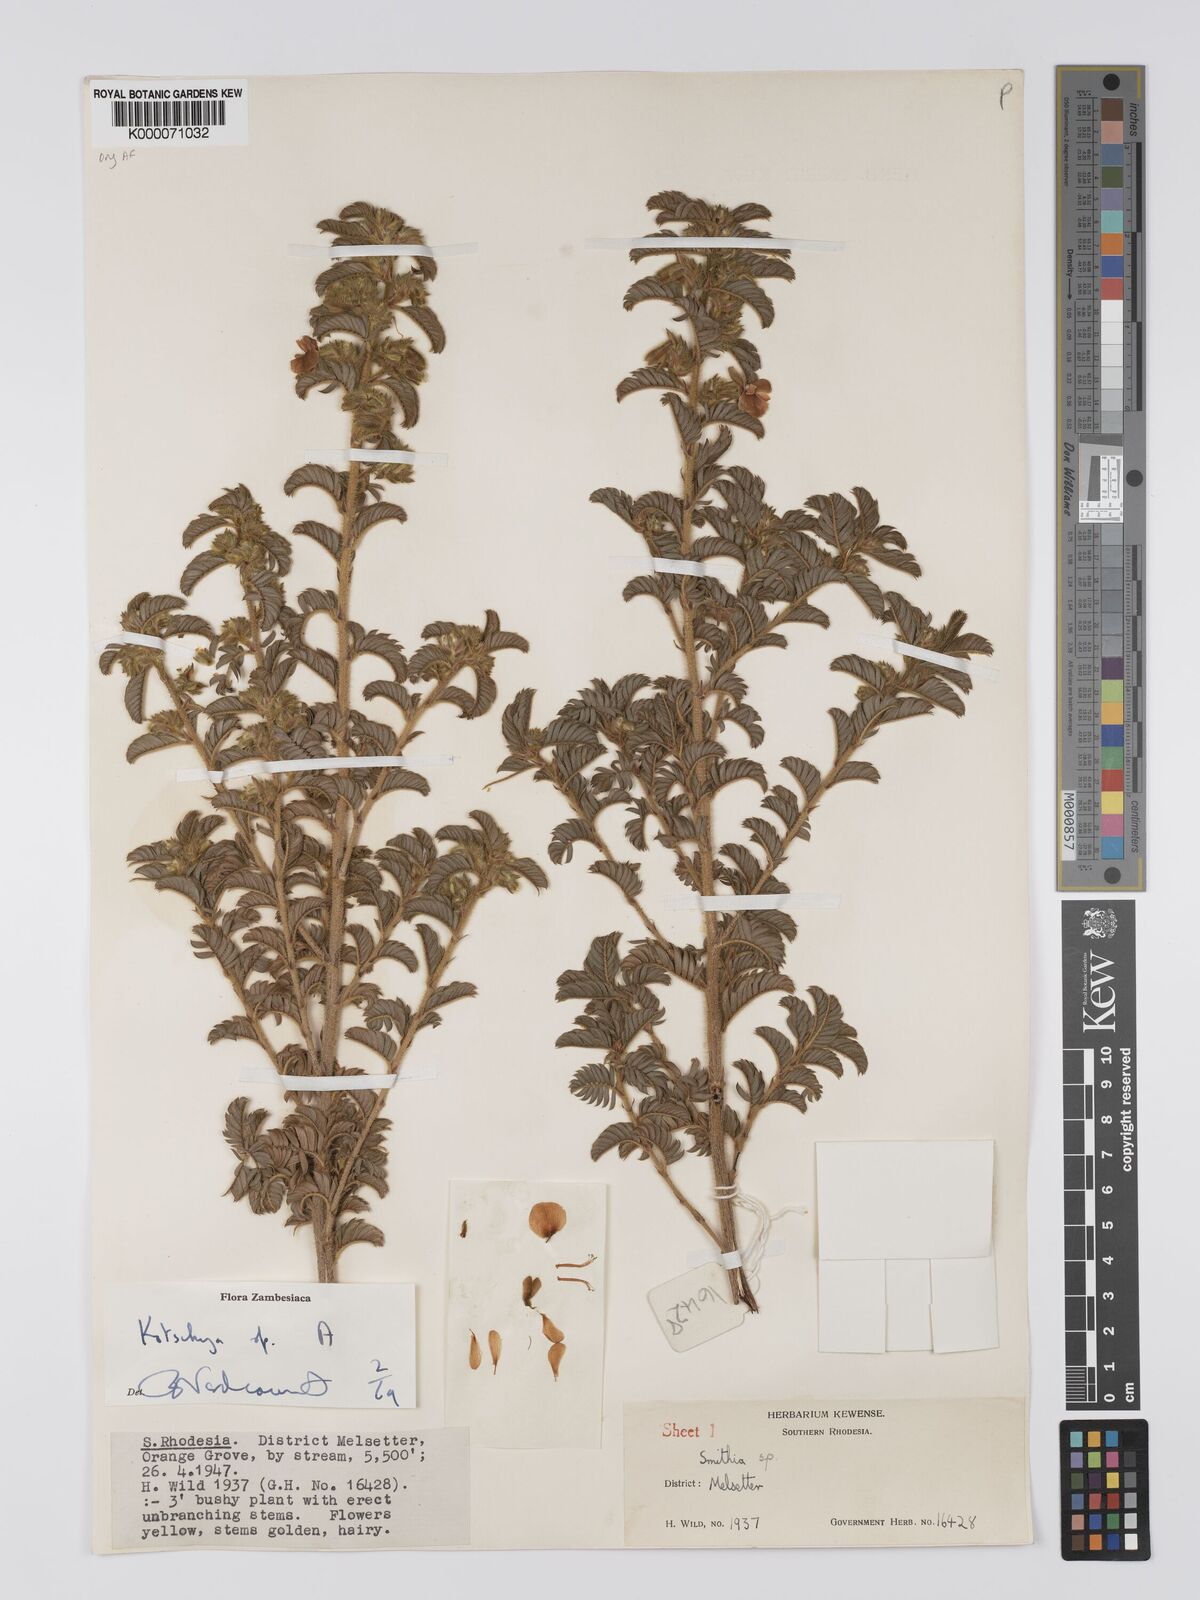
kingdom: Plantae
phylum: Tracheophyta
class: Magnoliopsida
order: Fabales
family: Fabaceae
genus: Kotschya
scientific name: Kotschya
